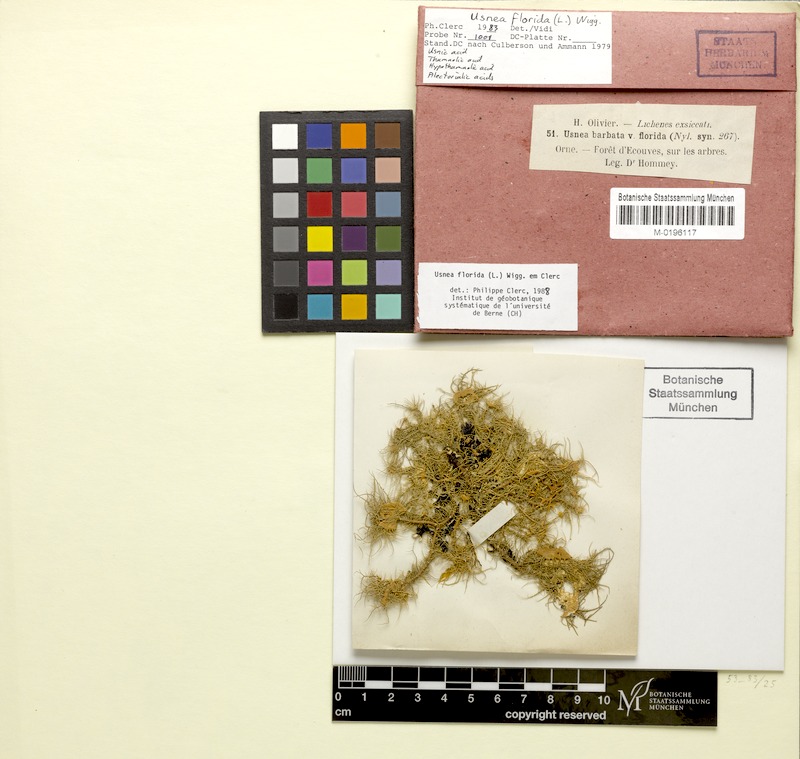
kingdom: Fungi
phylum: Ascomycota
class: Lecanoromycetes
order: Lecanorales
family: Parmeliaceae
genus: Usnea
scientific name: Usnea florida
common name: Witches' whiskers lichen
